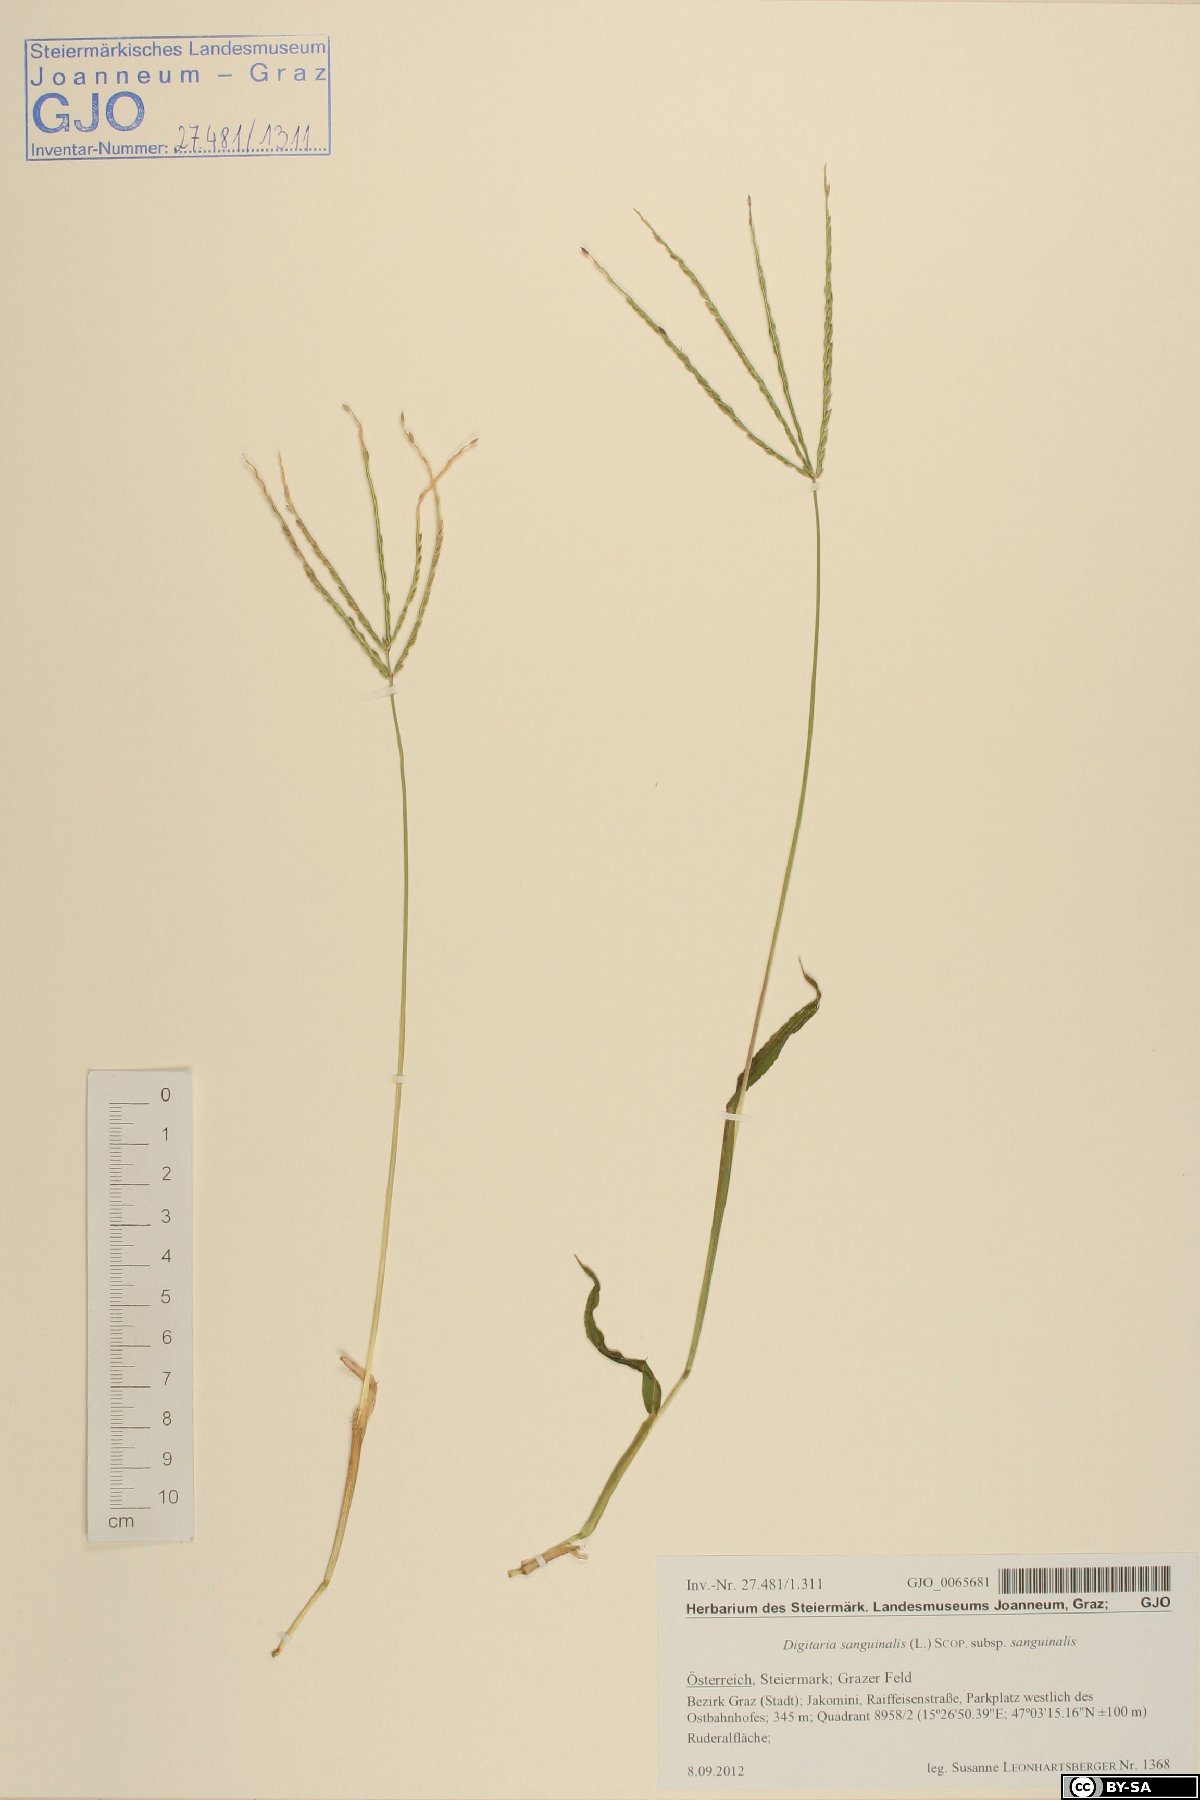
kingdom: Plantae
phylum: Tracheophyta
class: Liliopsida
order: Poales
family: Poaceae
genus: Digitaria
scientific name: Digitaria sanguinalis
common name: Hairy crabgrass
